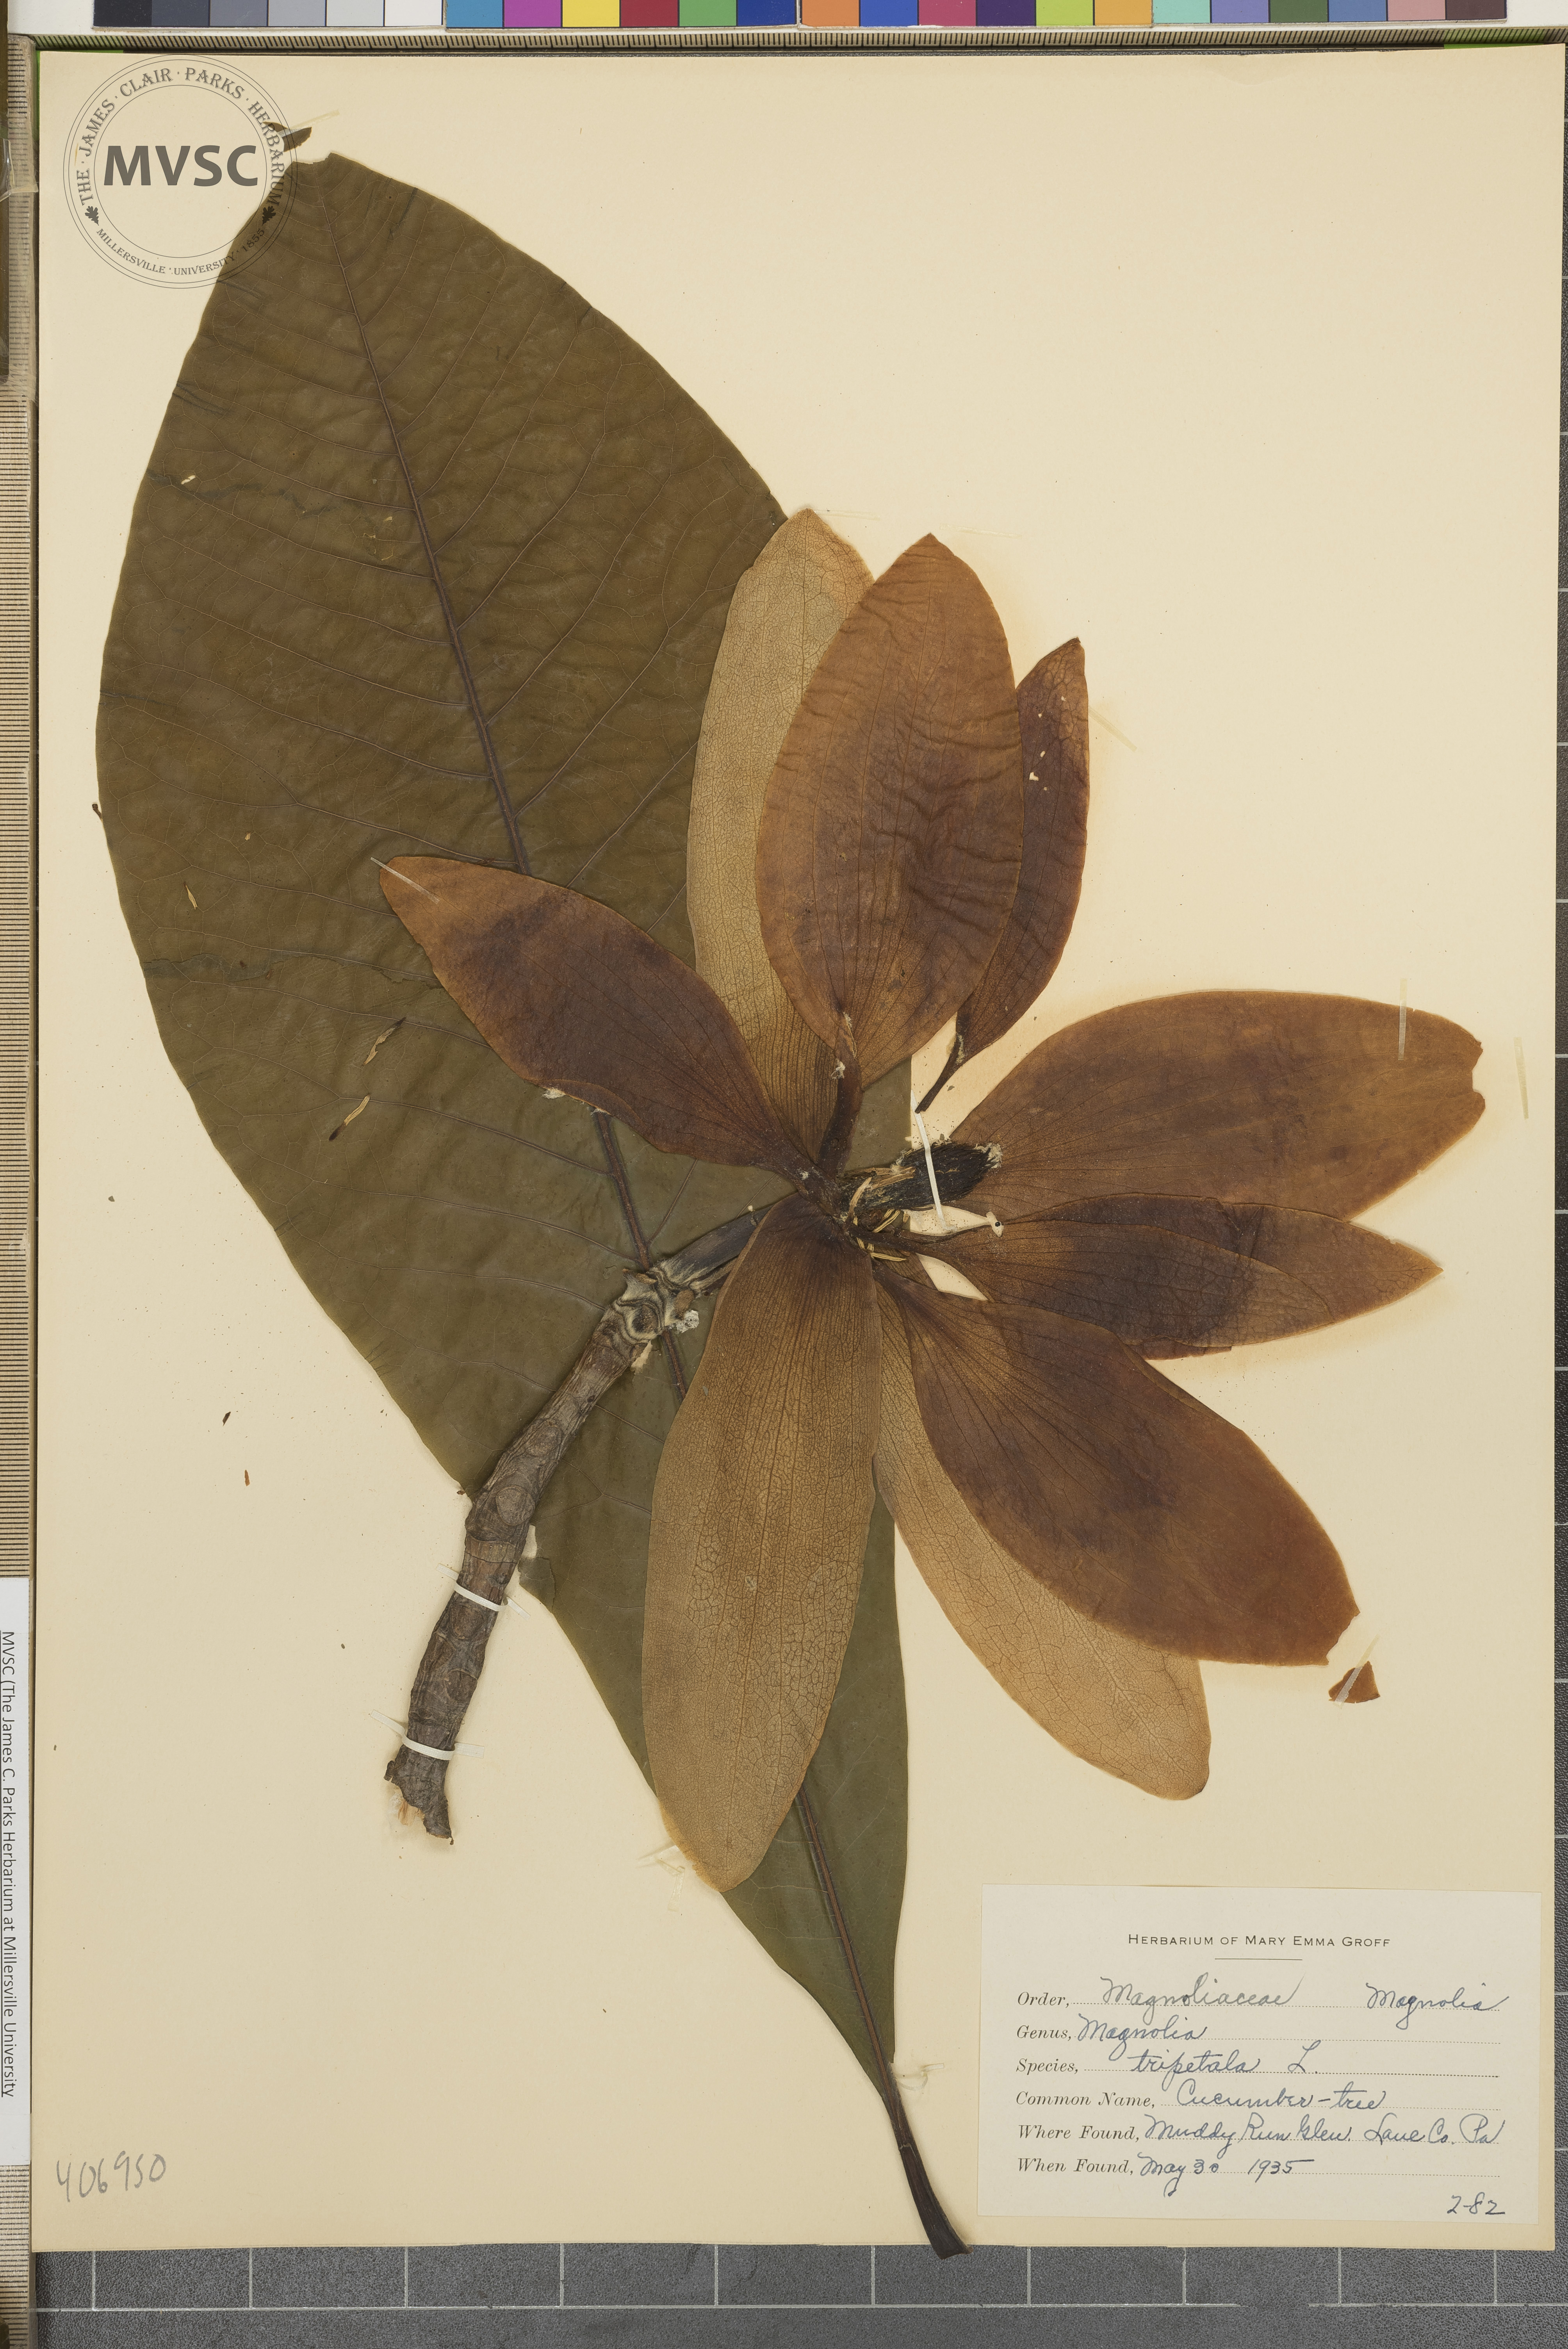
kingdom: Plantae
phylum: Tracheophyta
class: Magnoliopsida
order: Magnoliales
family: Magnoliaceae
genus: Magnolia
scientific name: Magnolia tripetala
